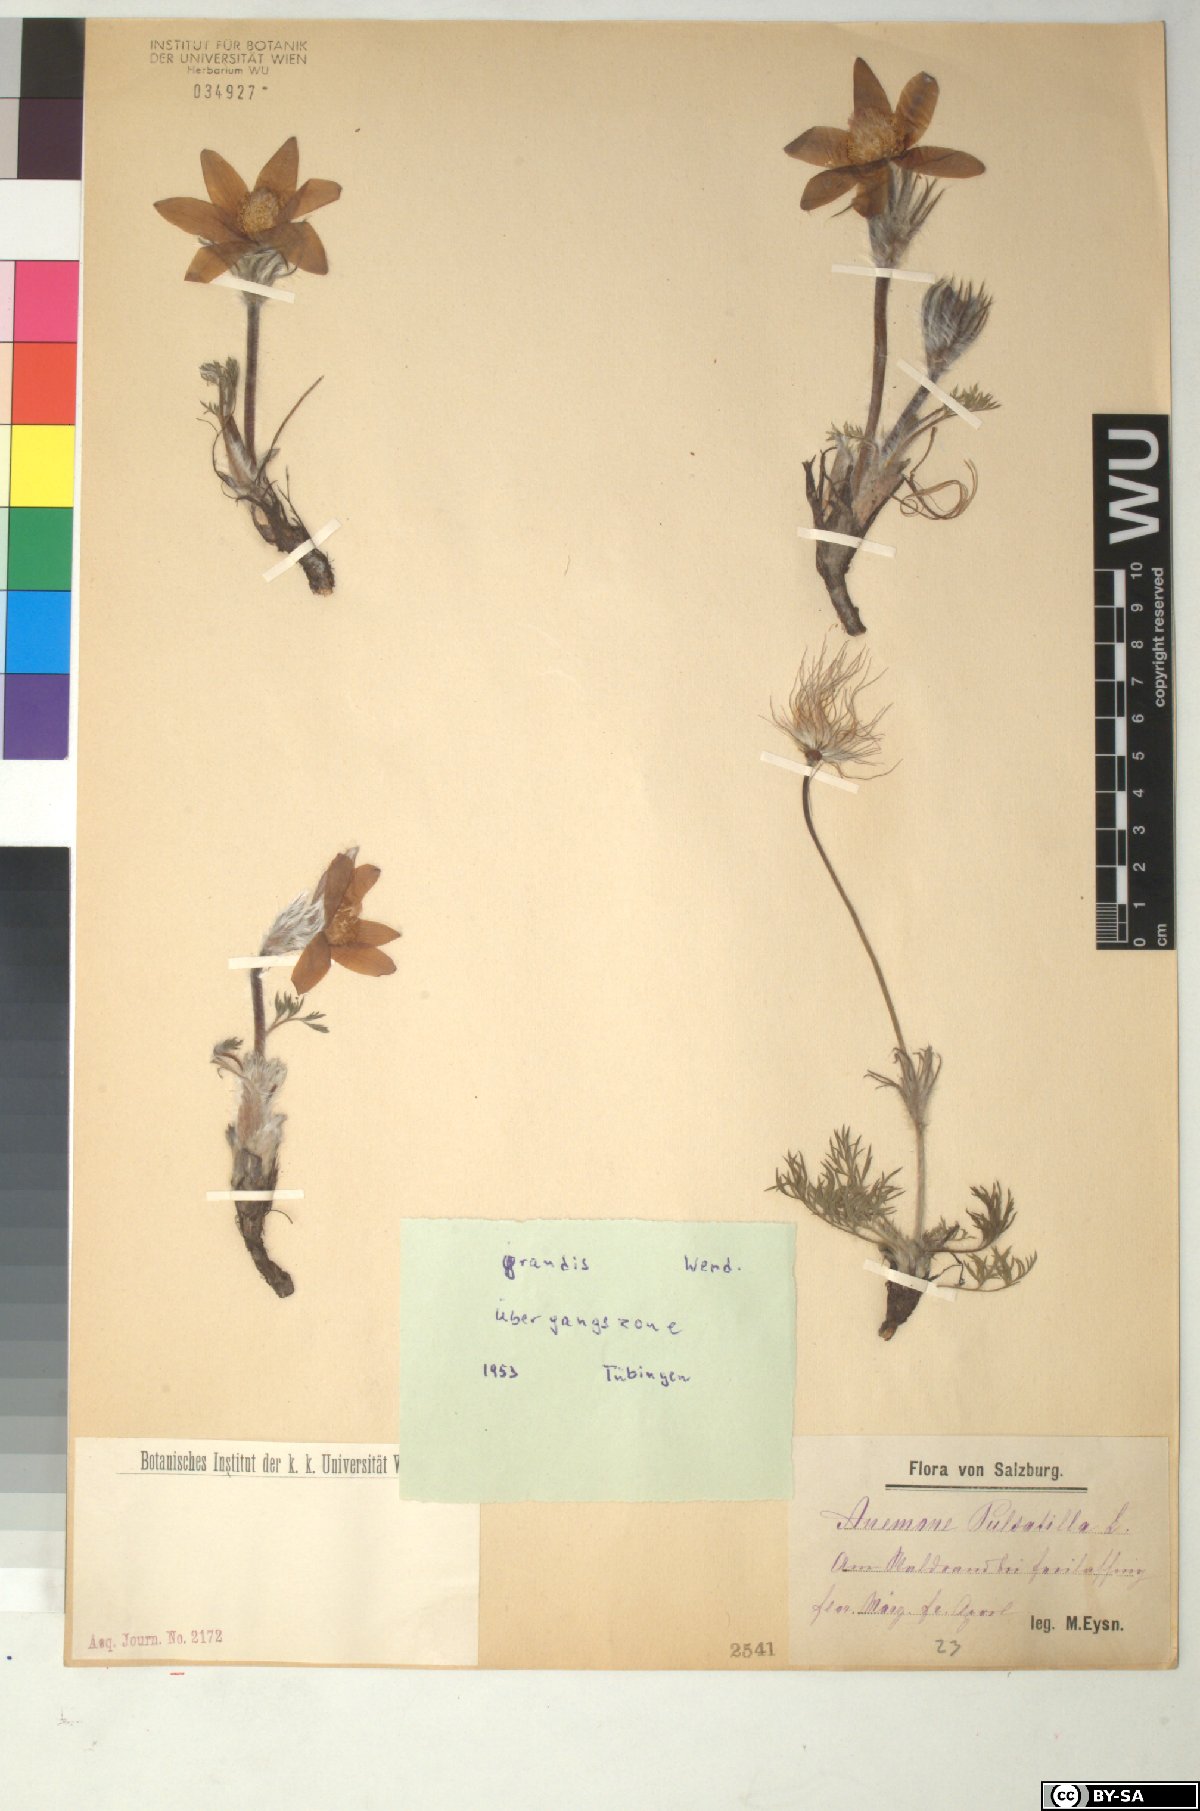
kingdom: Plantae
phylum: Tracheophyta
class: Magnoliopsida
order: Ranunculales
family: Ranunculaceae
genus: Pulsatilla
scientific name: Pulsatilla grandis
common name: Greater pasque flower
